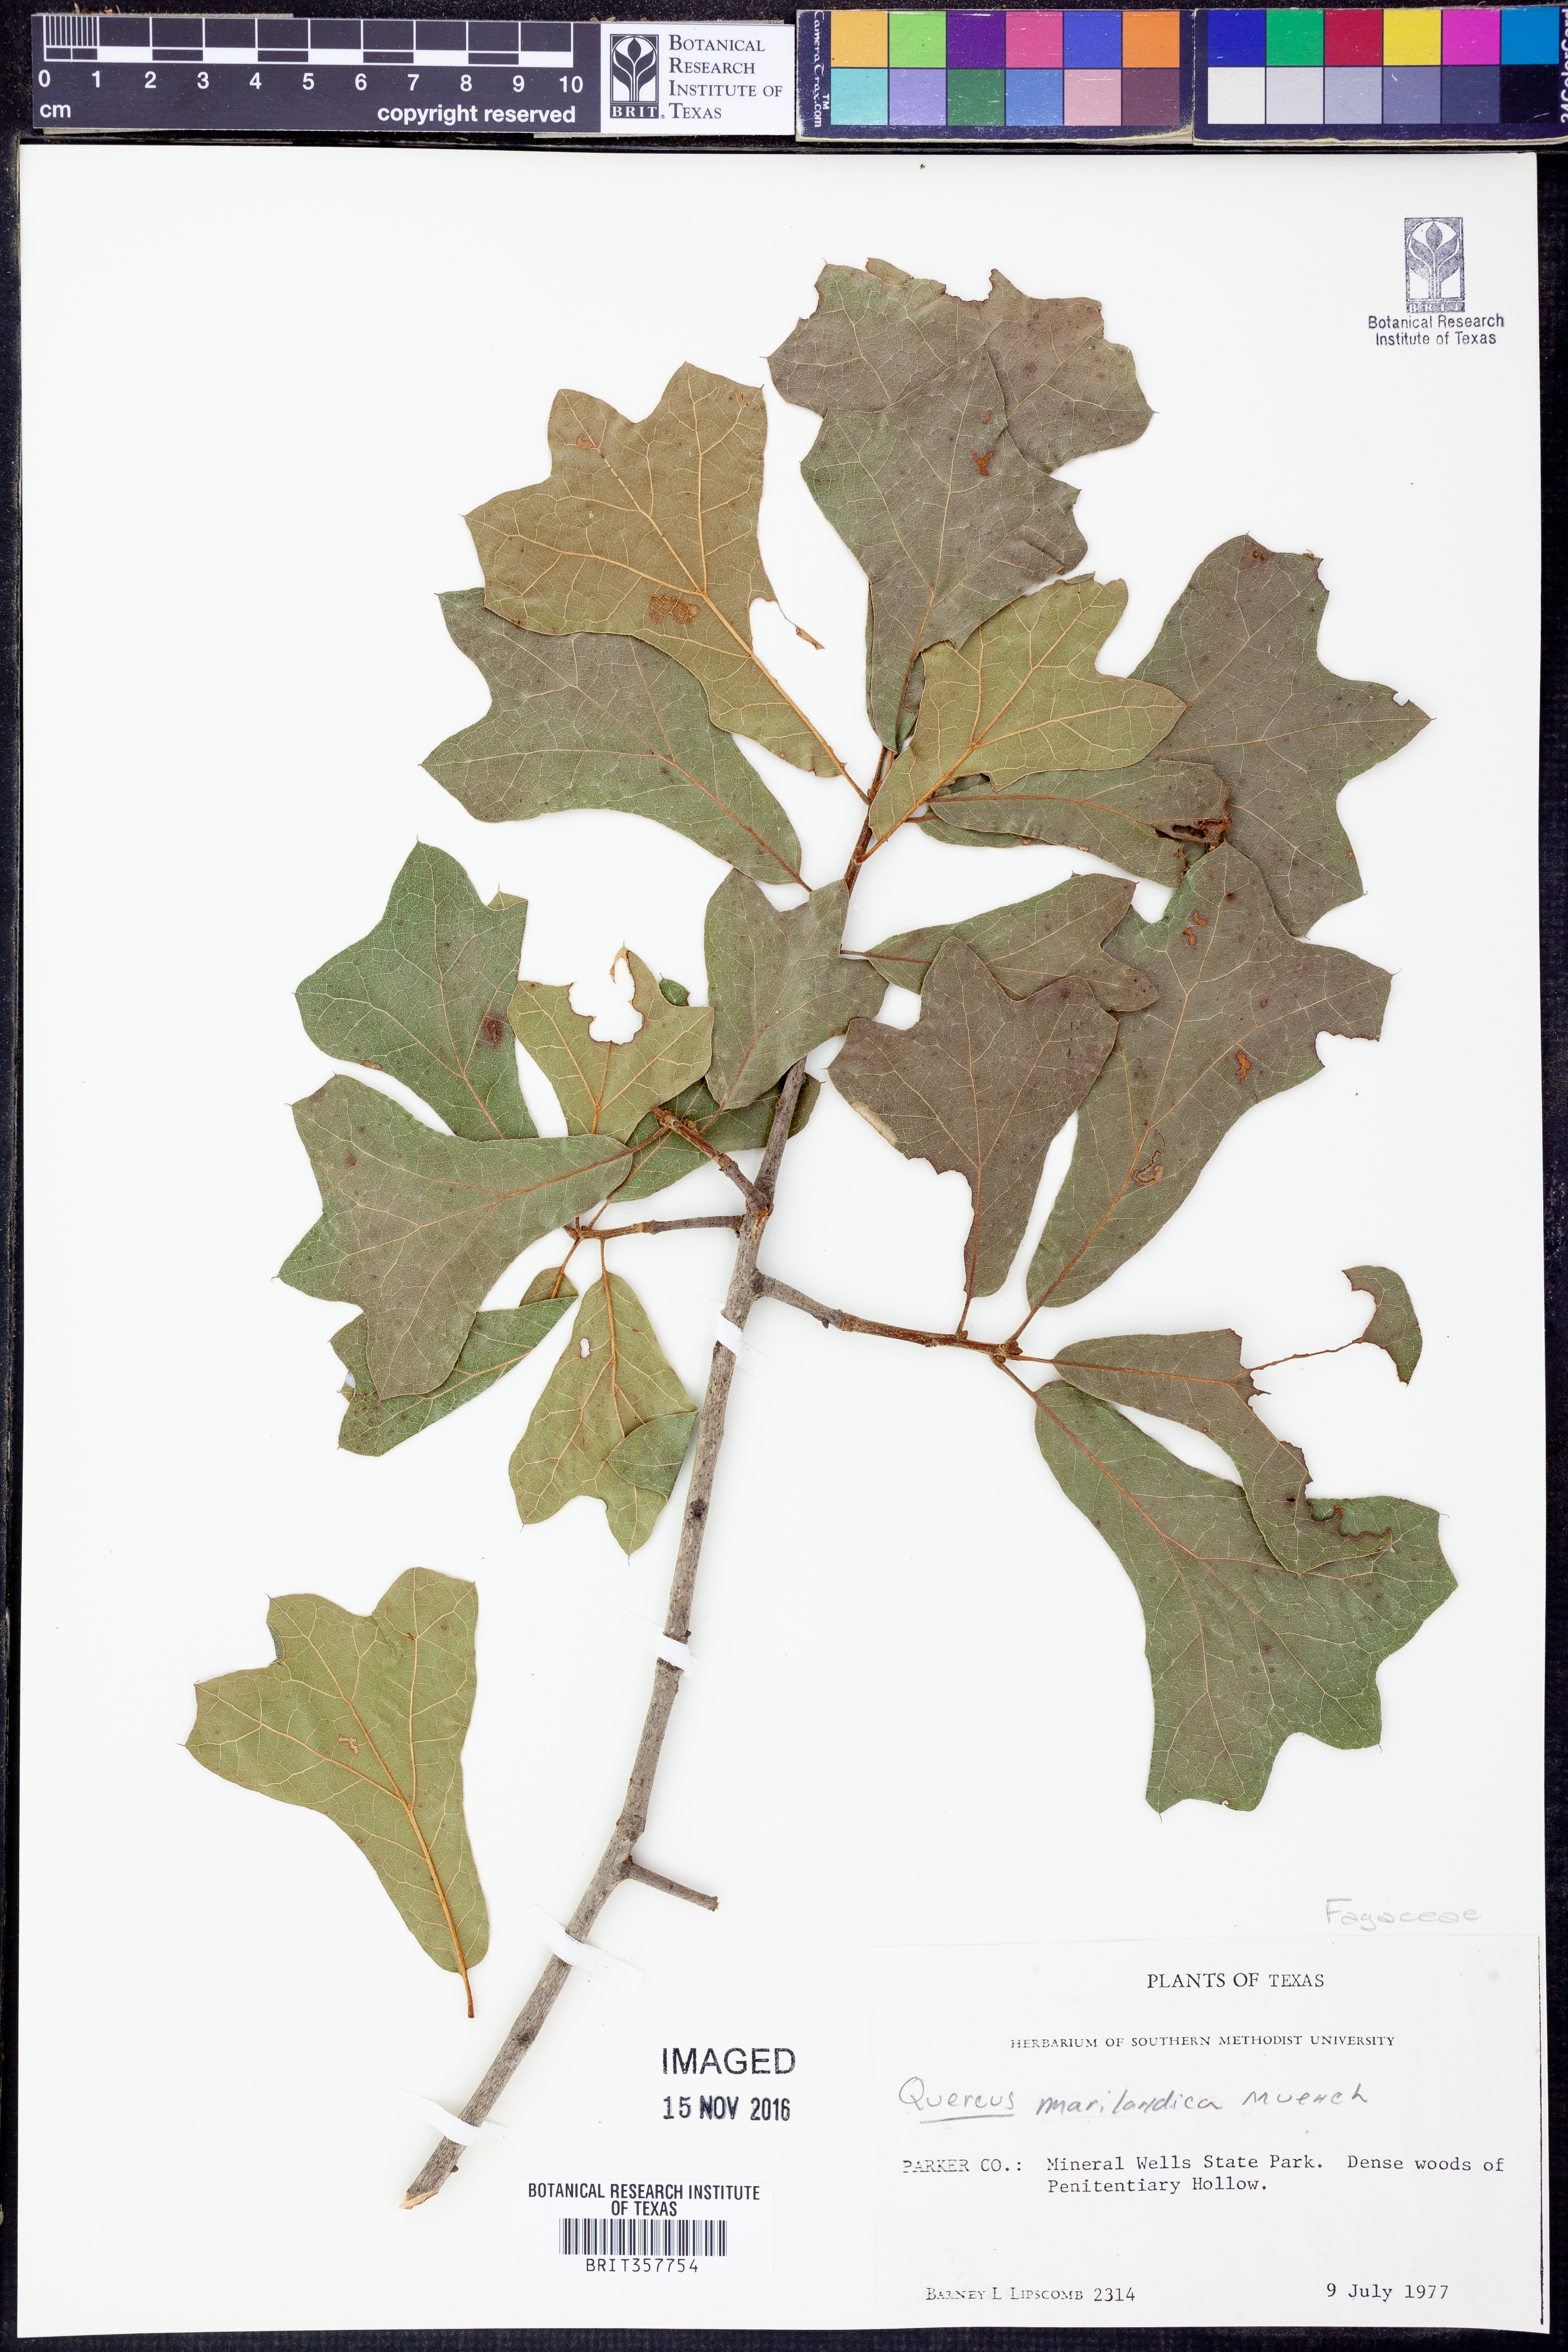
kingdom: Plantae
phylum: Tracheophyta
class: Magnoliopsida
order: Fagales
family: Fagaceae
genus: Quercus
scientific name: Quercus marilandica
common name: Blackjack oak
